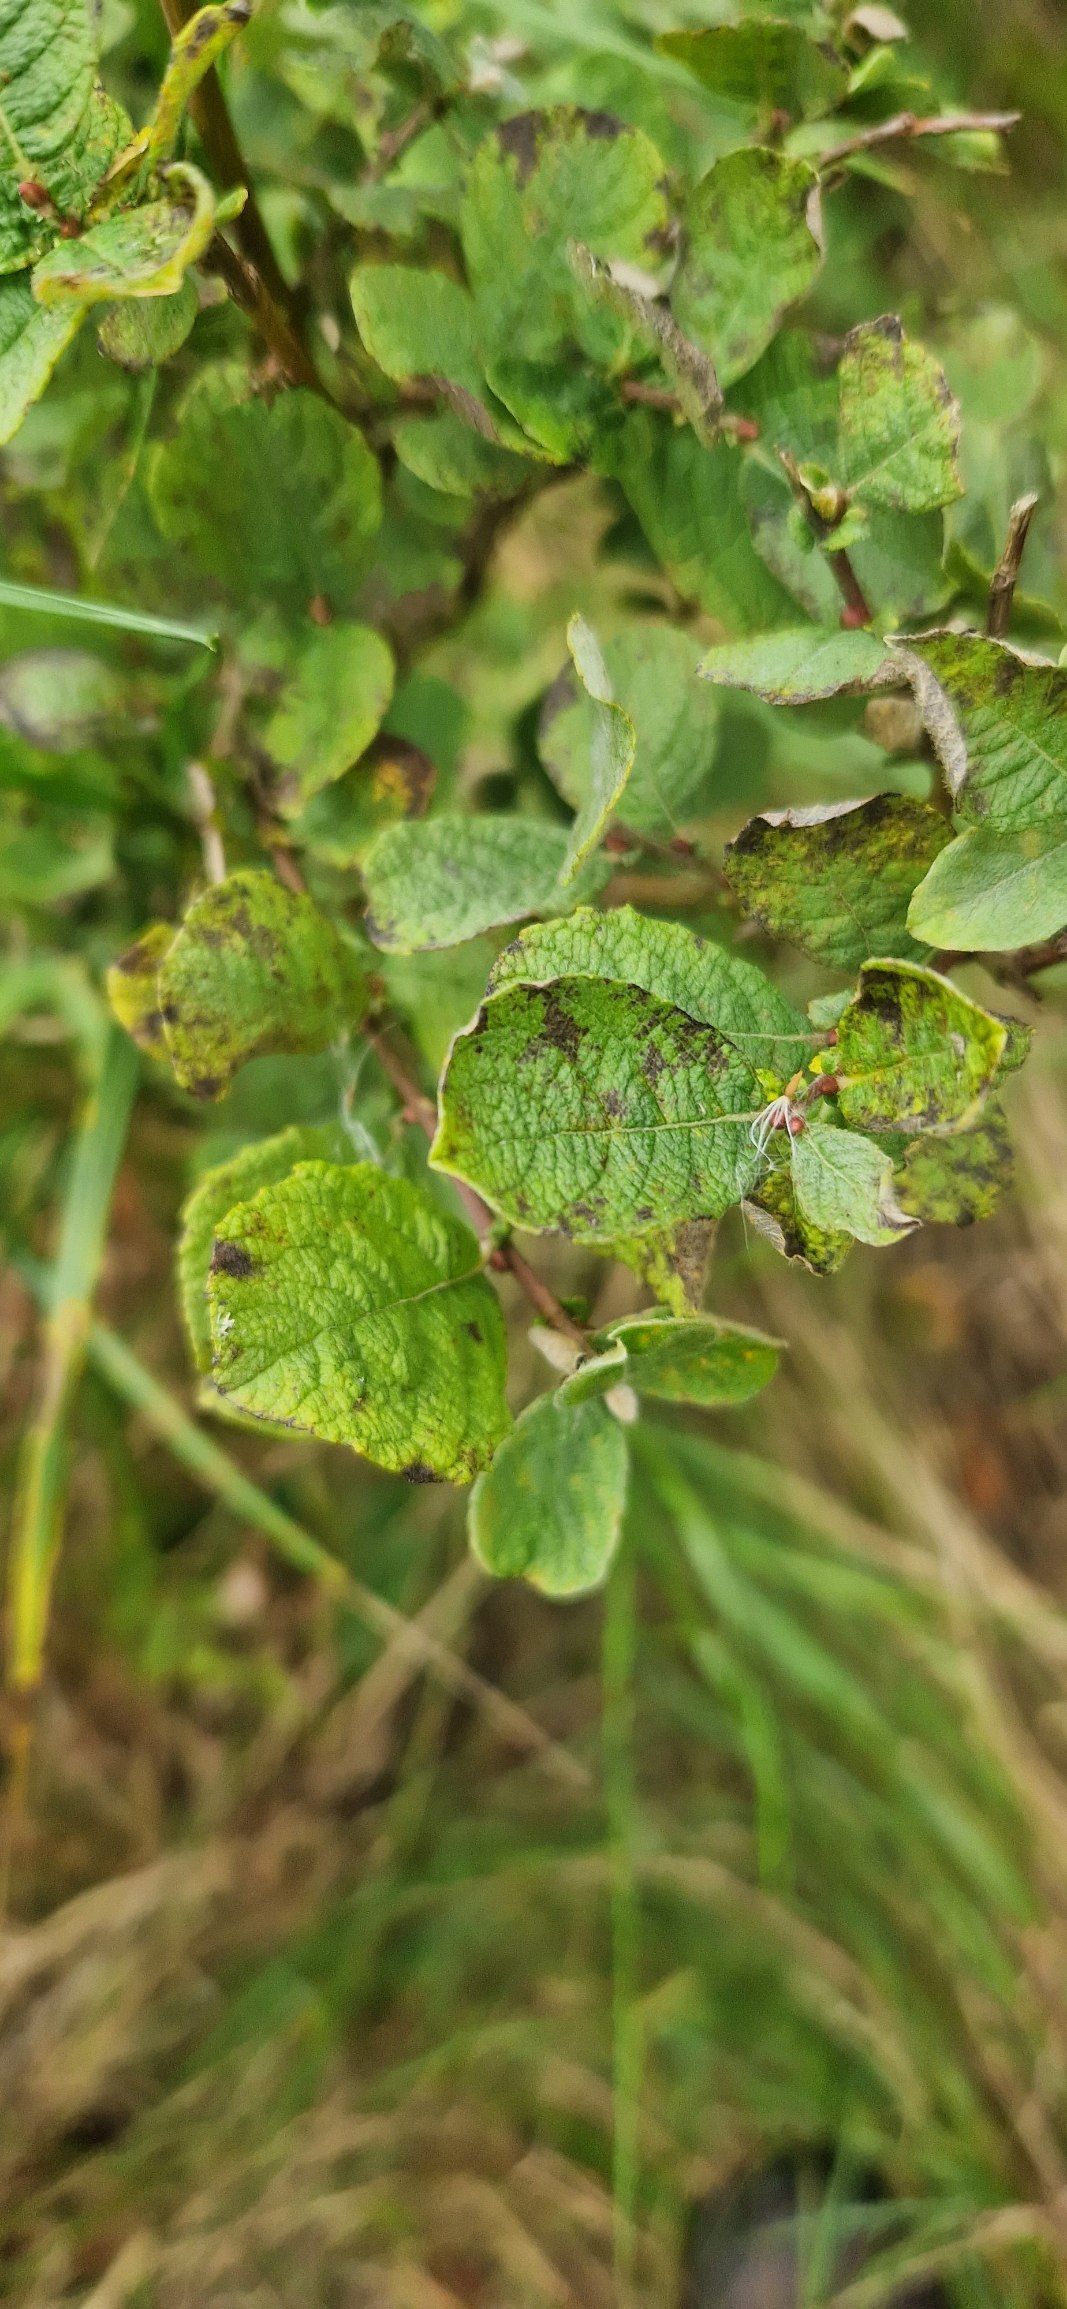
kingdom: Plantae
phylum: Tracheophyta
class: Magnoliopsida
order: Malpighiales
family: Salicaceae
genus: Salix
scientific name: Salix aurita
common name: Øret pil
